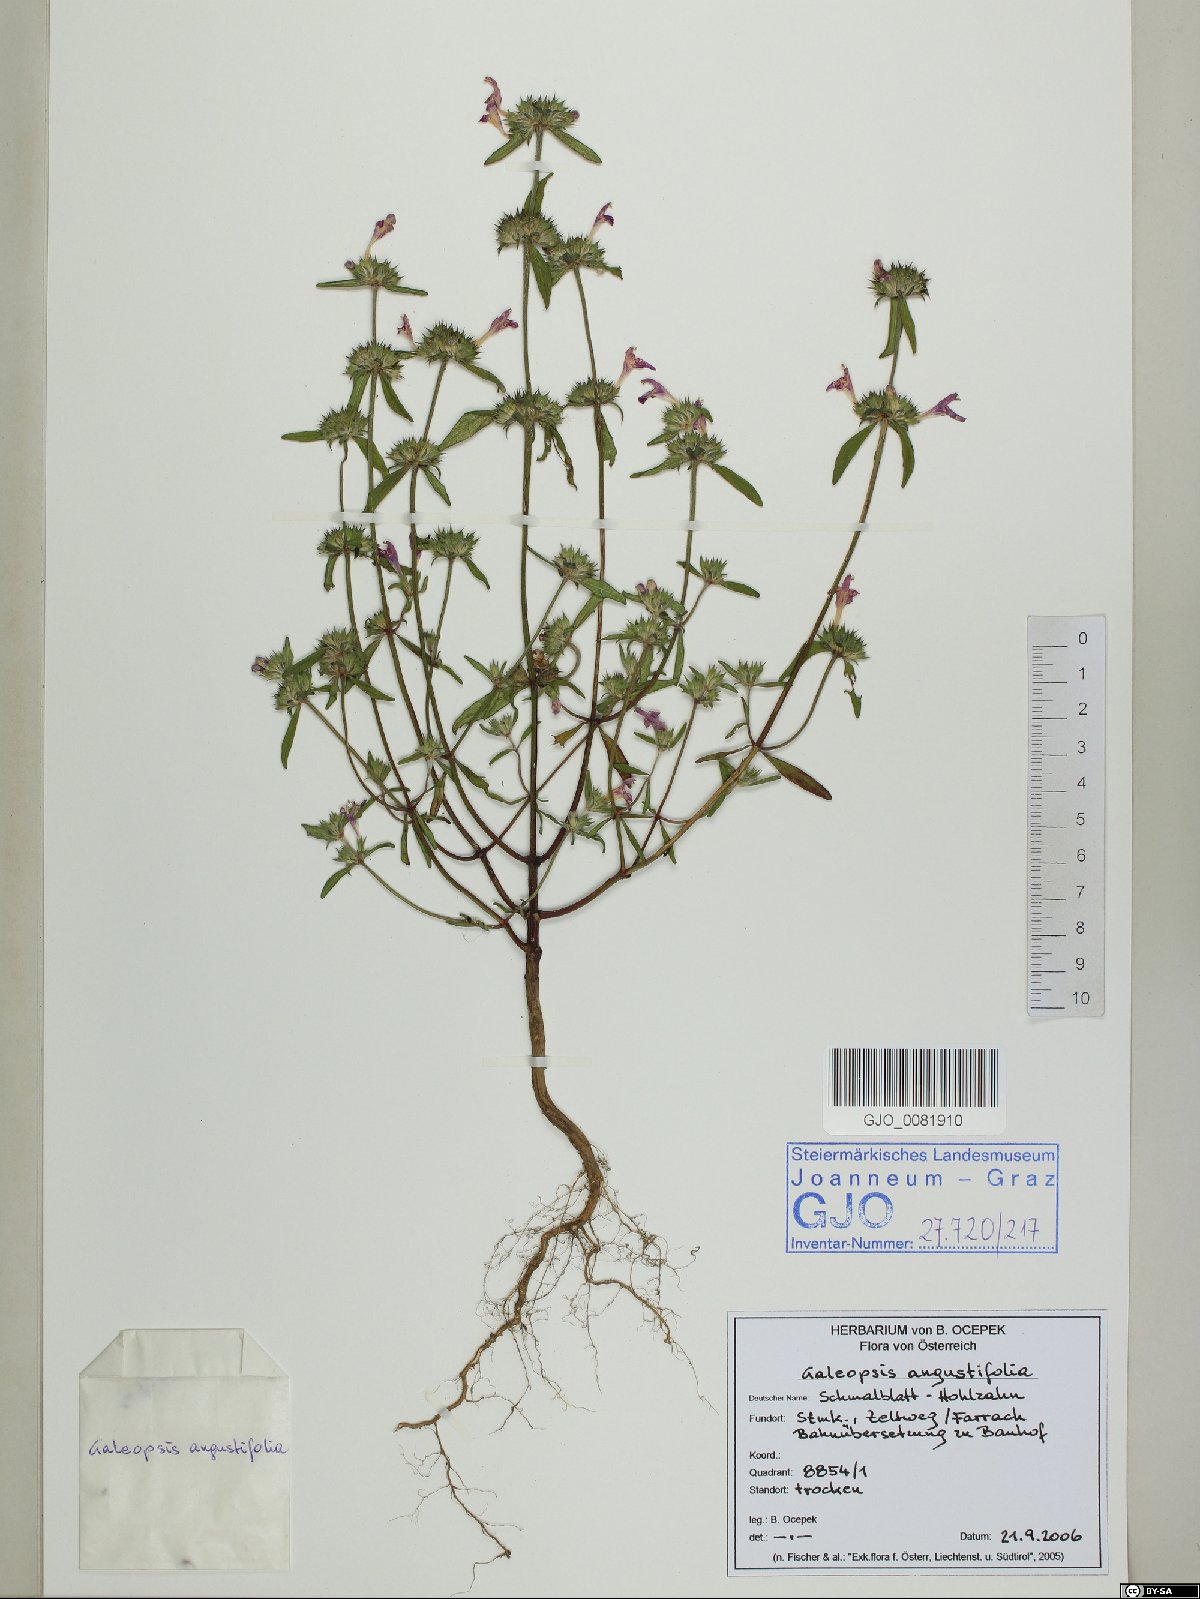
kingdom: Plantae
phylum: Tracheophyta
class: Magnoliopsida
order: Lamiales
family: Lamiaceae
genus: Galeopsis
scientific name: Galeopsis angustifolia
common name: Red hemp-nettle
